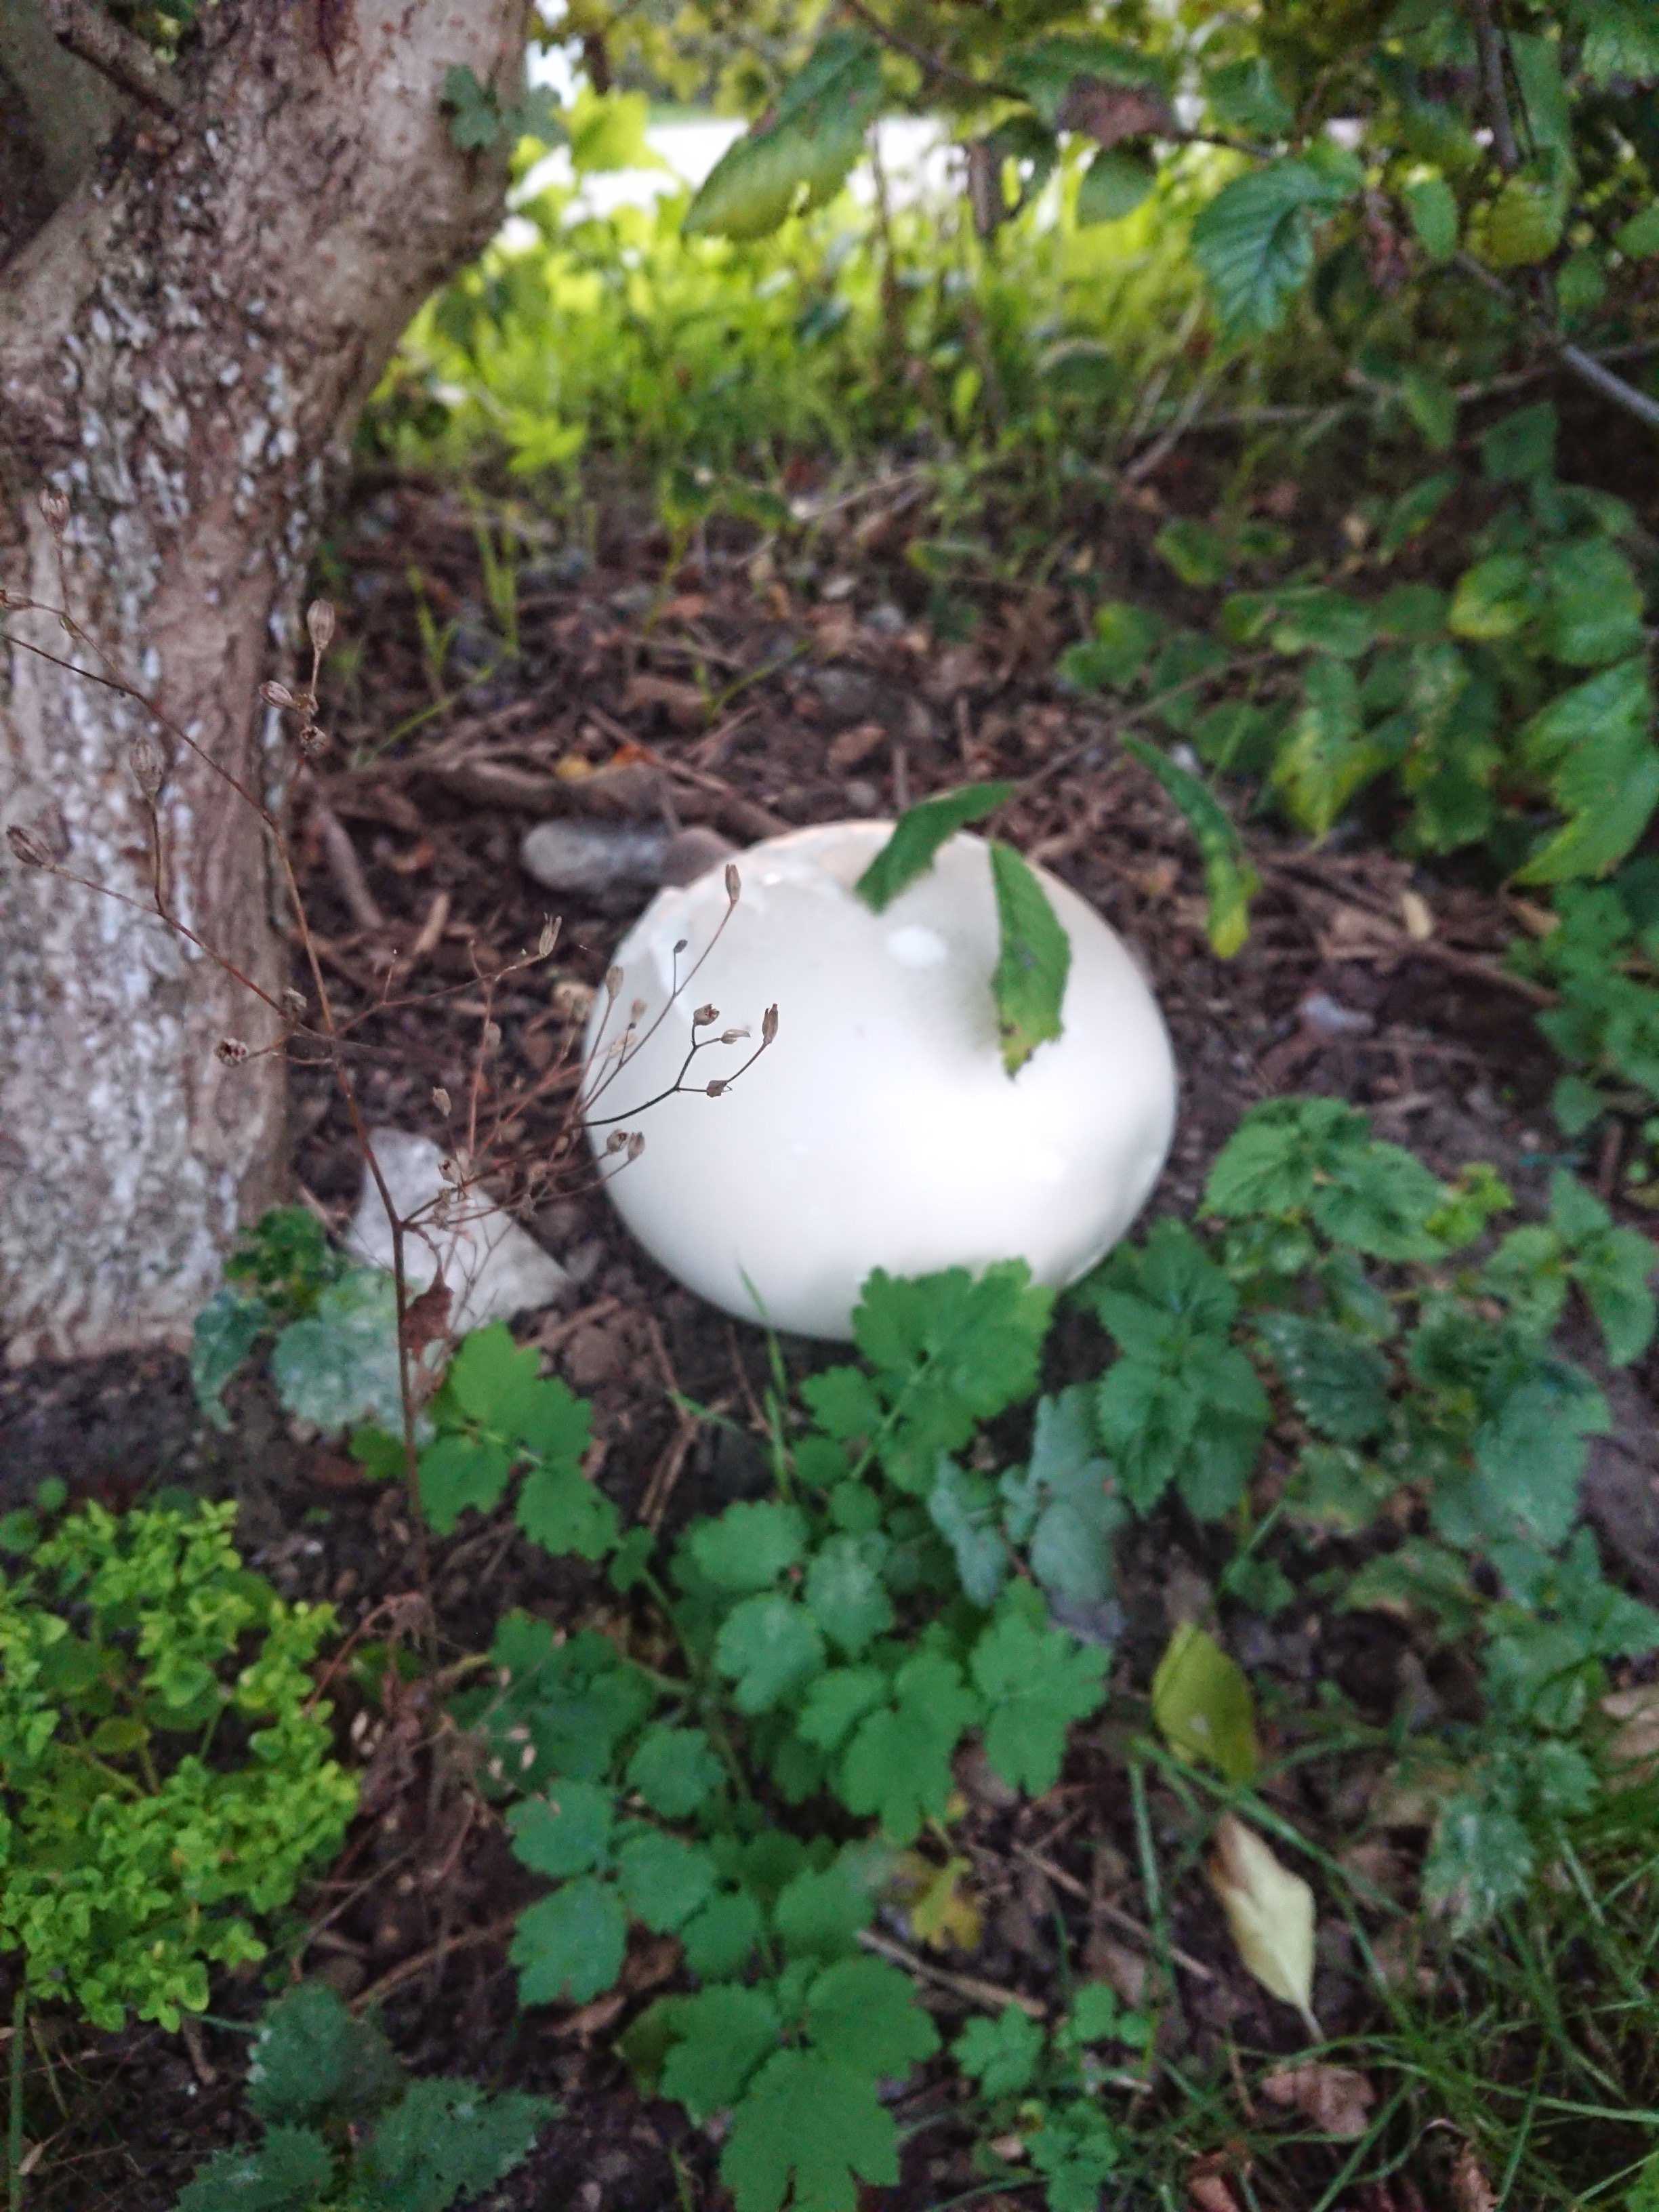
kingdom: Fungi
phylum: Basidiomycota
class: Agaricomycetes
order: Agaricales
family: Lycoperdaceae
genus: Calvatia
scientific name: Calvatia gigantea
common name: kæmpestøvbold
